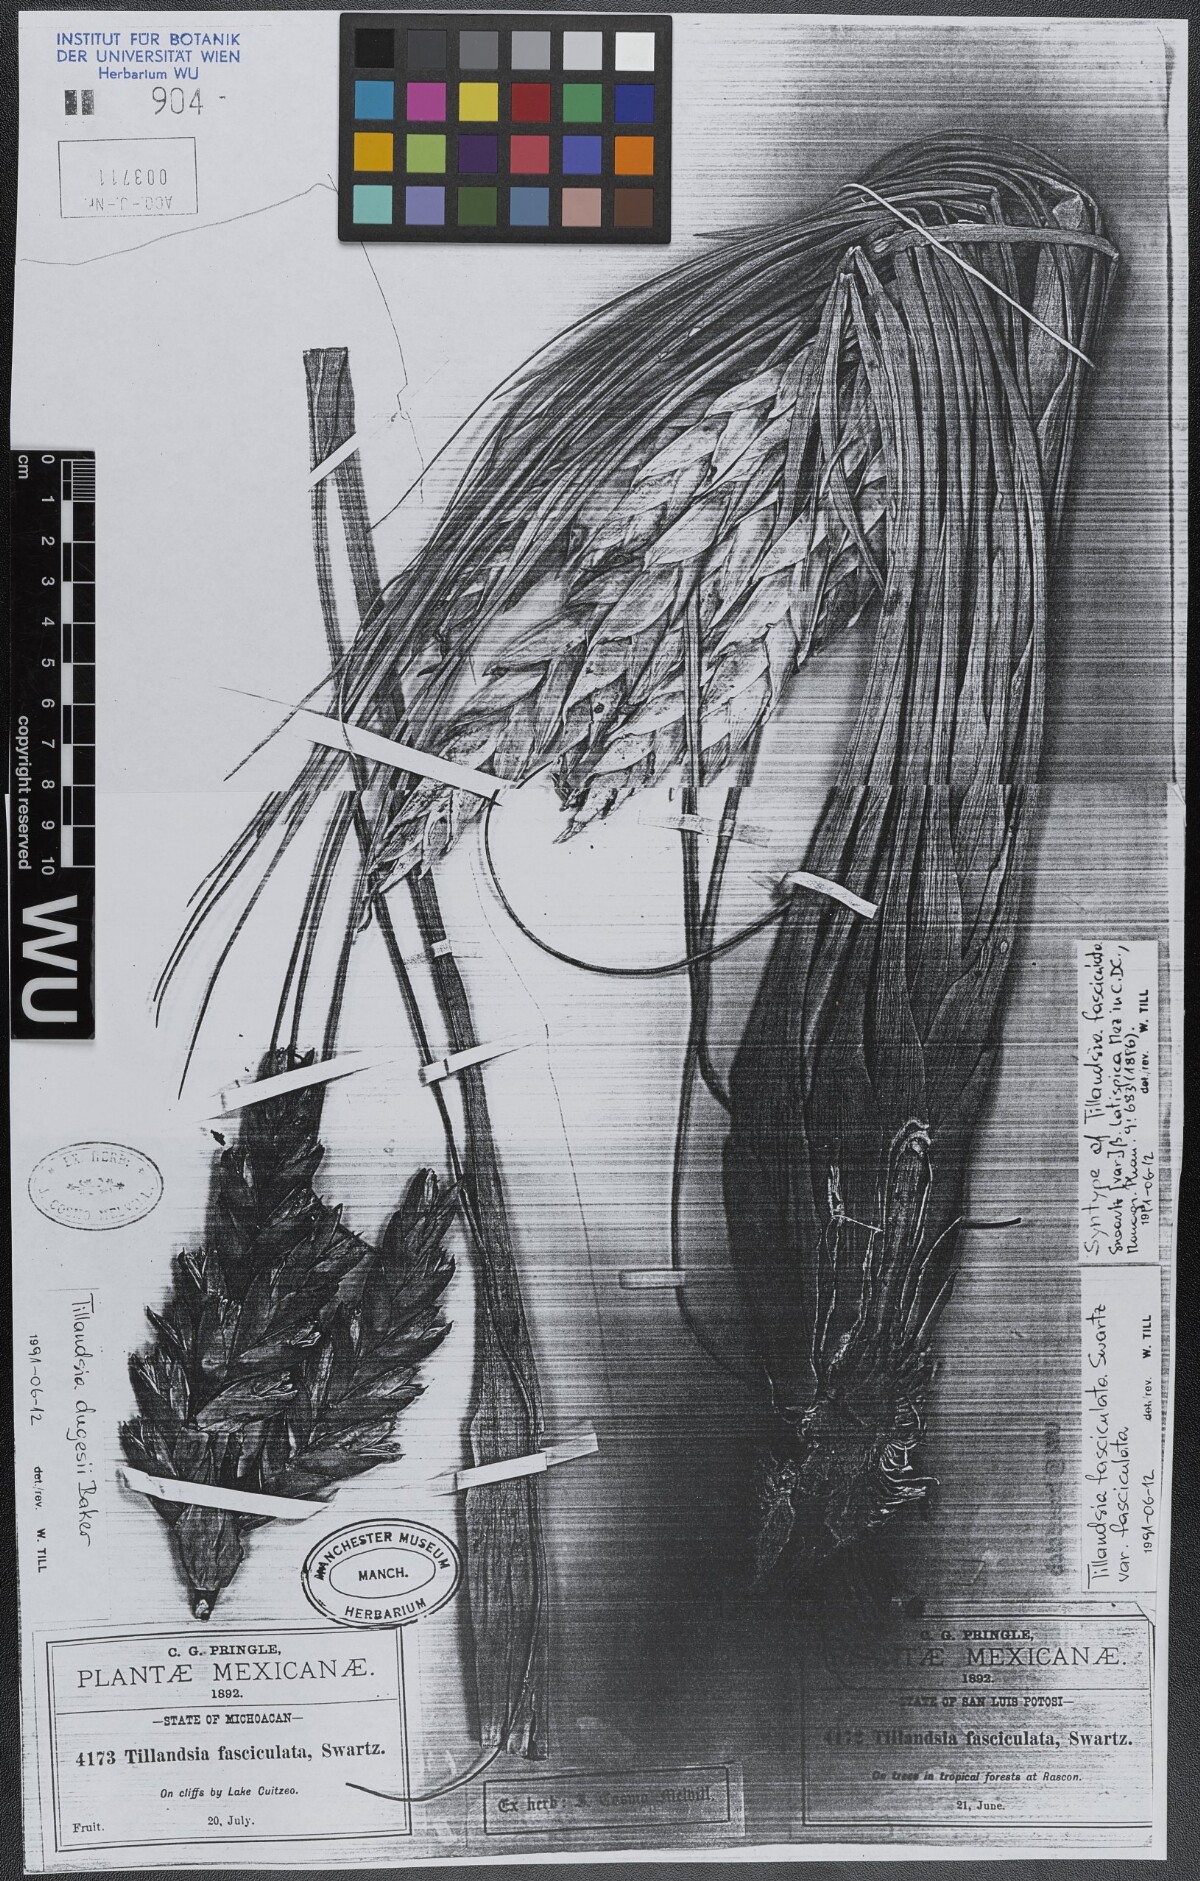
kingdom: Plantae
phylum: Tracheophyta
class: Liliopsida
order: Poales
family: Bromeliaceae
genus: Tillandsia
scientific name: Tillandsia dugesii
